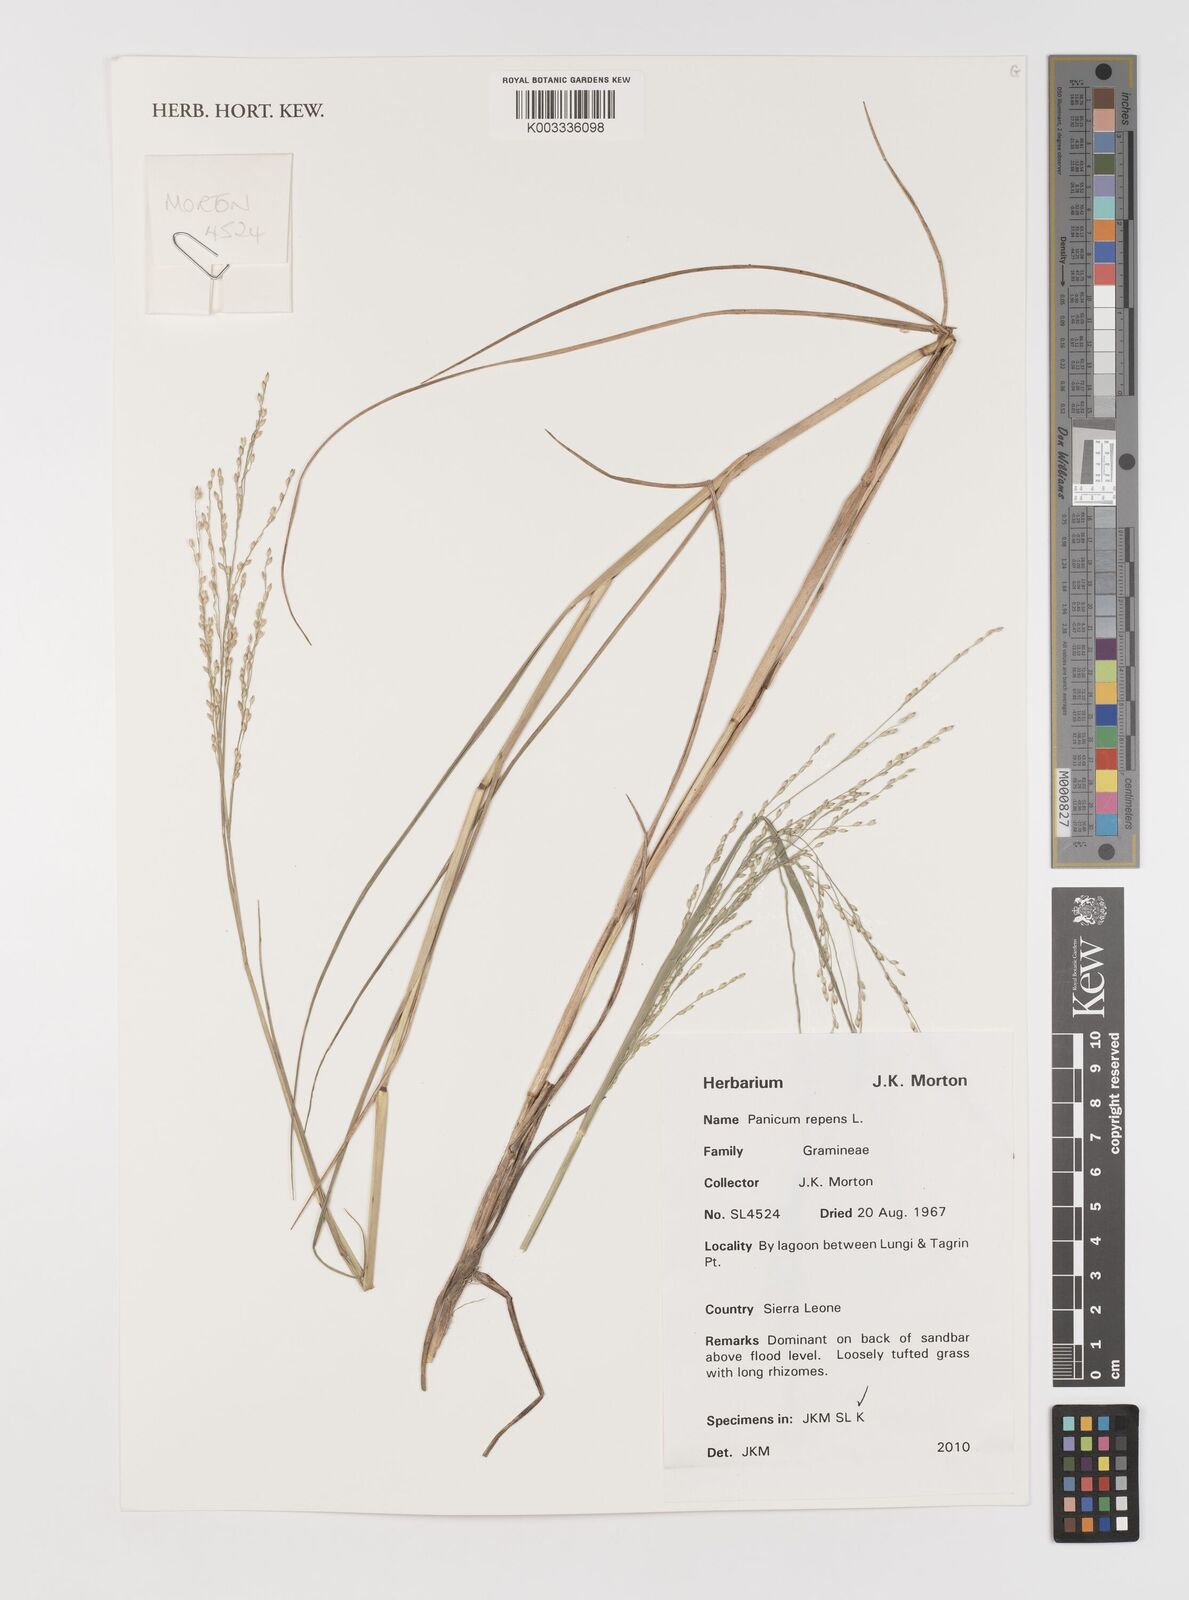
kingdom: Plantae
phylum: Tracheophyta
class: Liliopsida
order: Poales
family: Poaceae
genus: Panicum
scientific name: Panicum repens
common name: Torpedo grass
